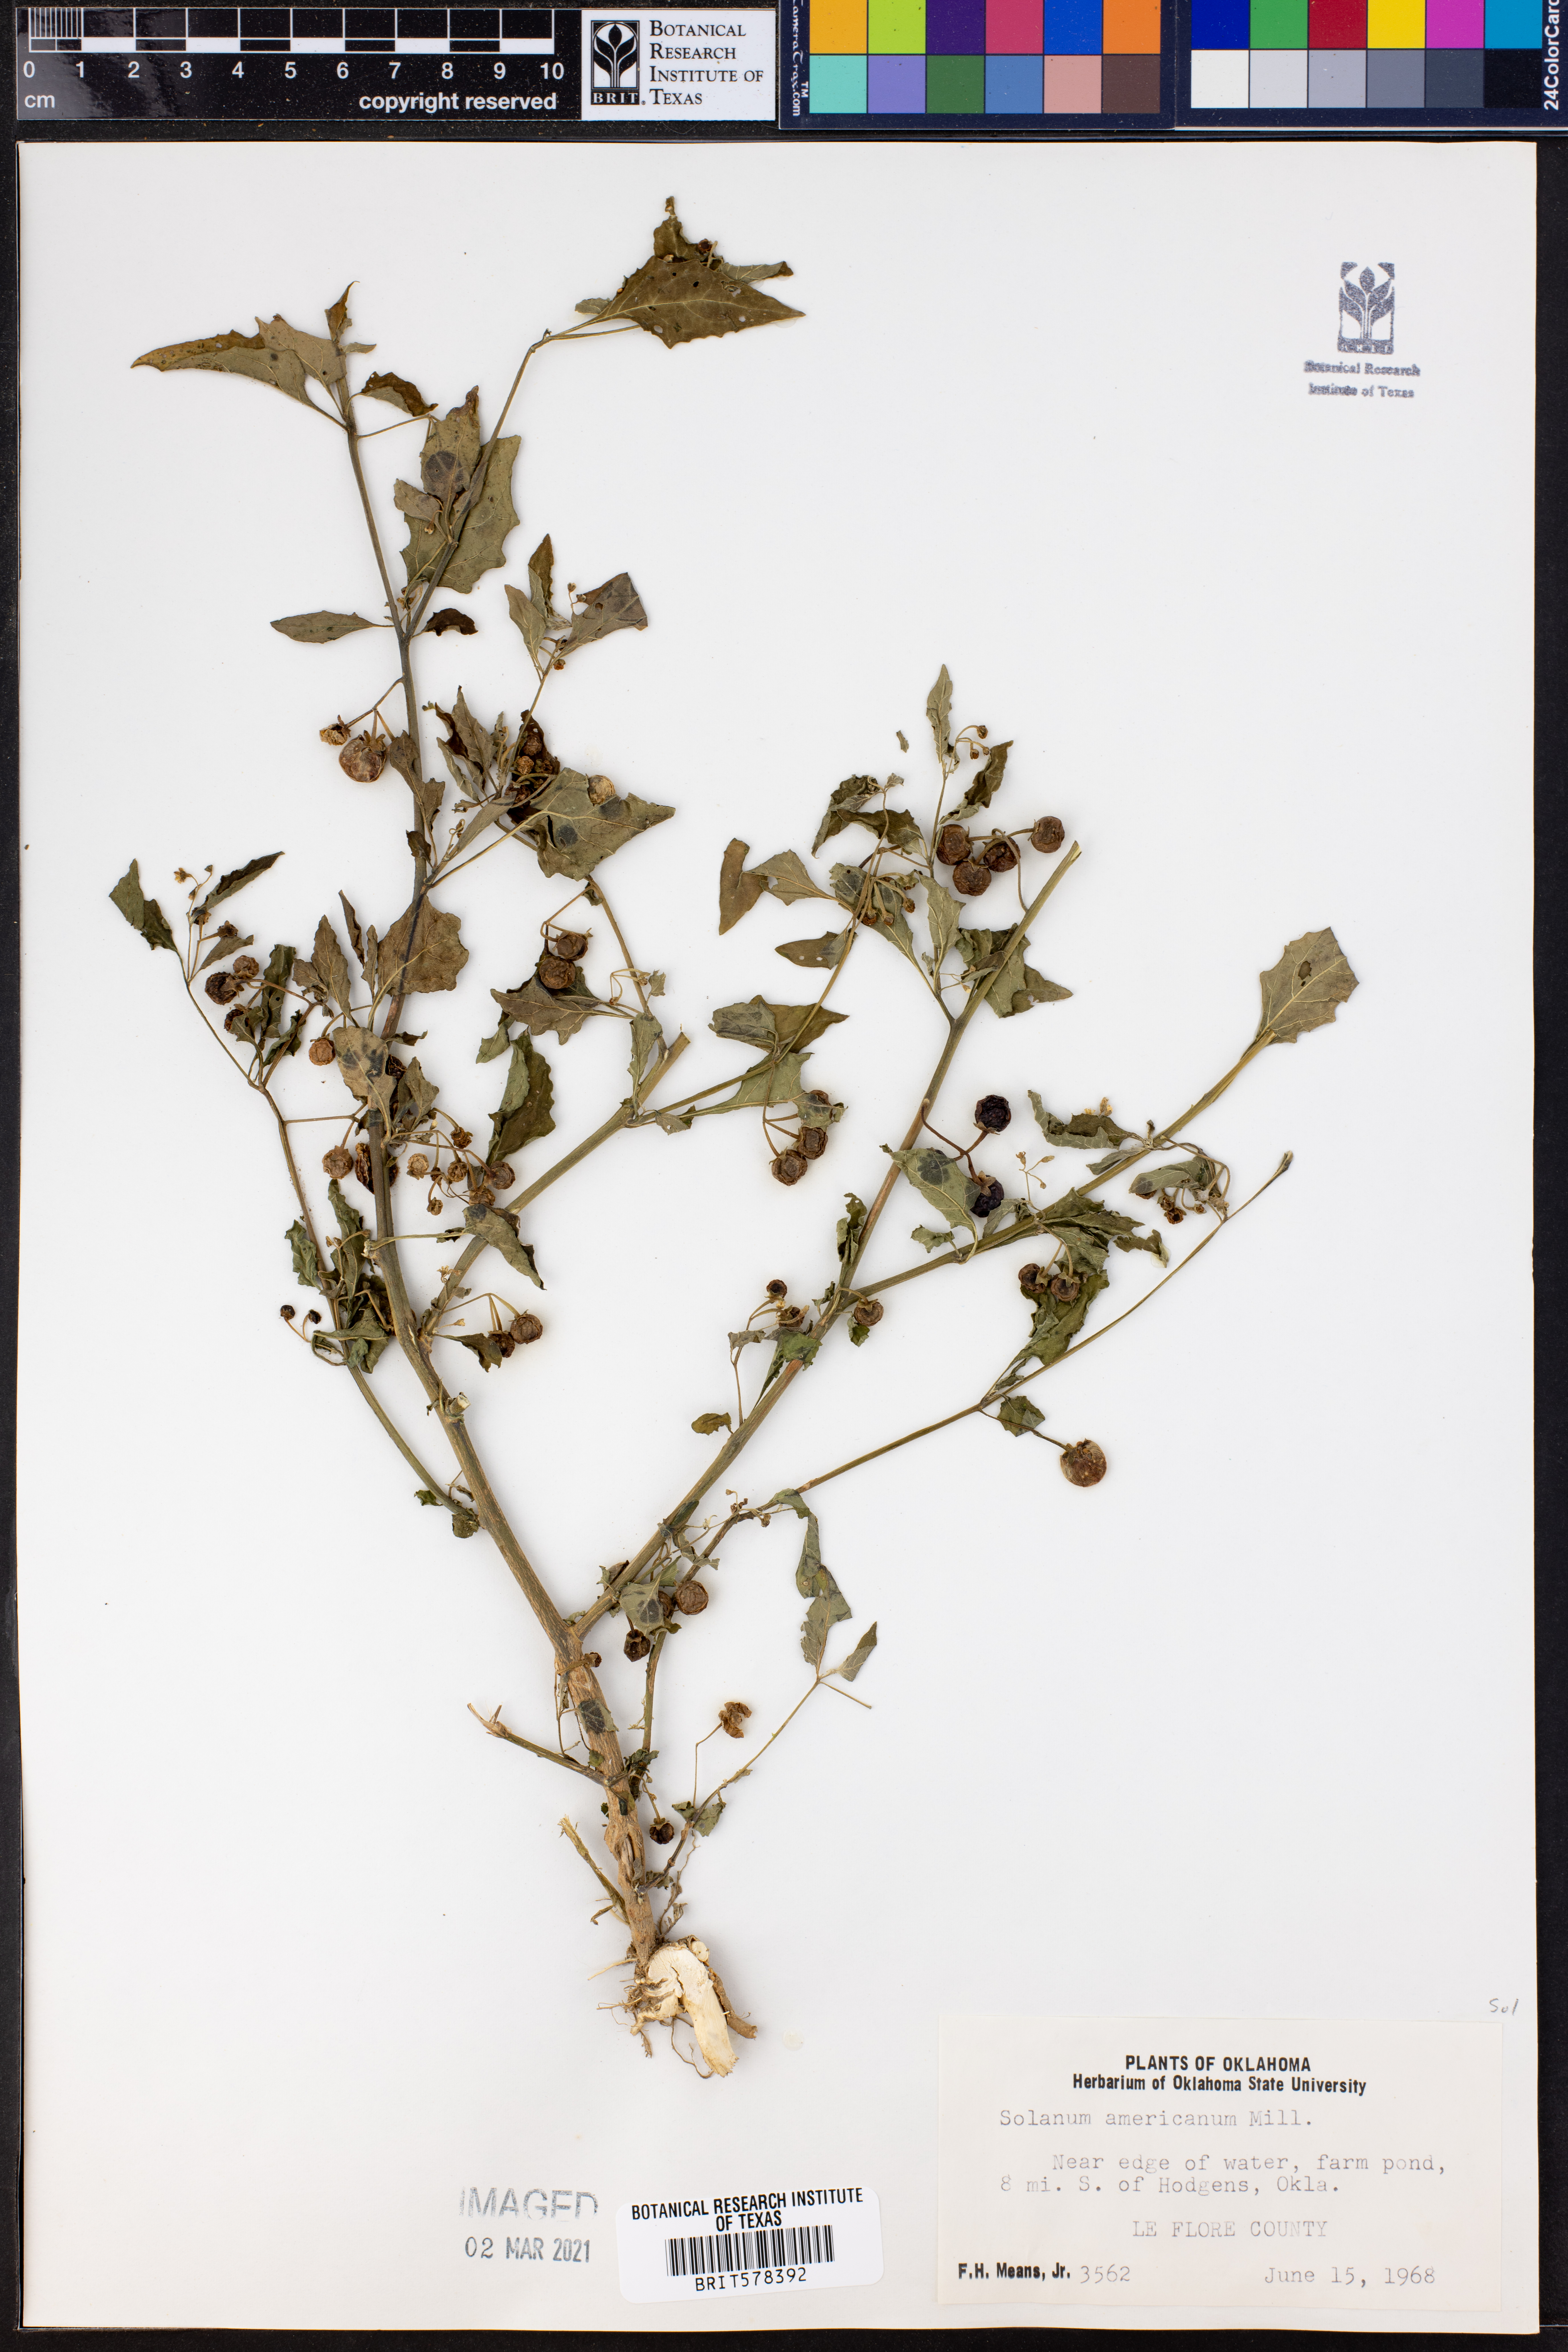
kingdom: Plantae
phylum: Tracheophyta
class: Magnoliopsida
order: Solanales
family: Solanaceae
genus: Solanum
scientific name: Solanum americanum
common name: American black nightshade
